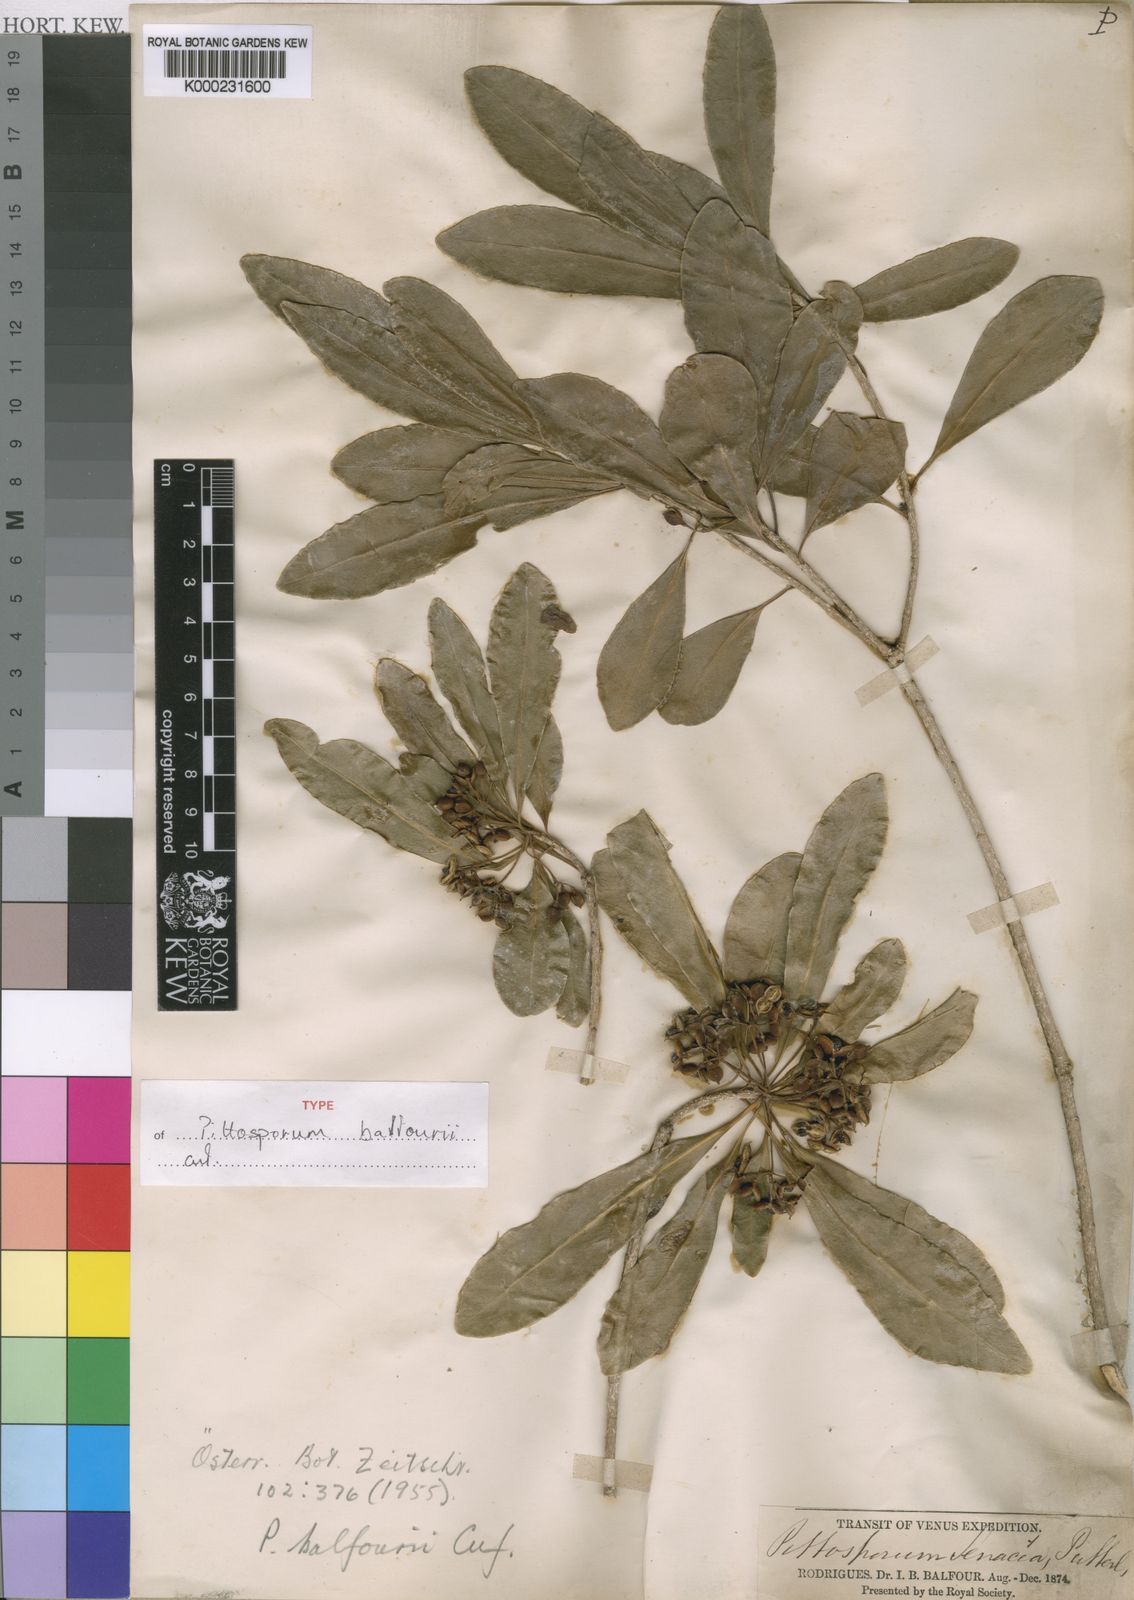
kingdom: Plantae
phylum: Tracheophyta
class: Magnoliopsida
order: Apiales
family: Pittosporaceae
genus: Pittosporum
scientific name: Pittosporum balfourii
